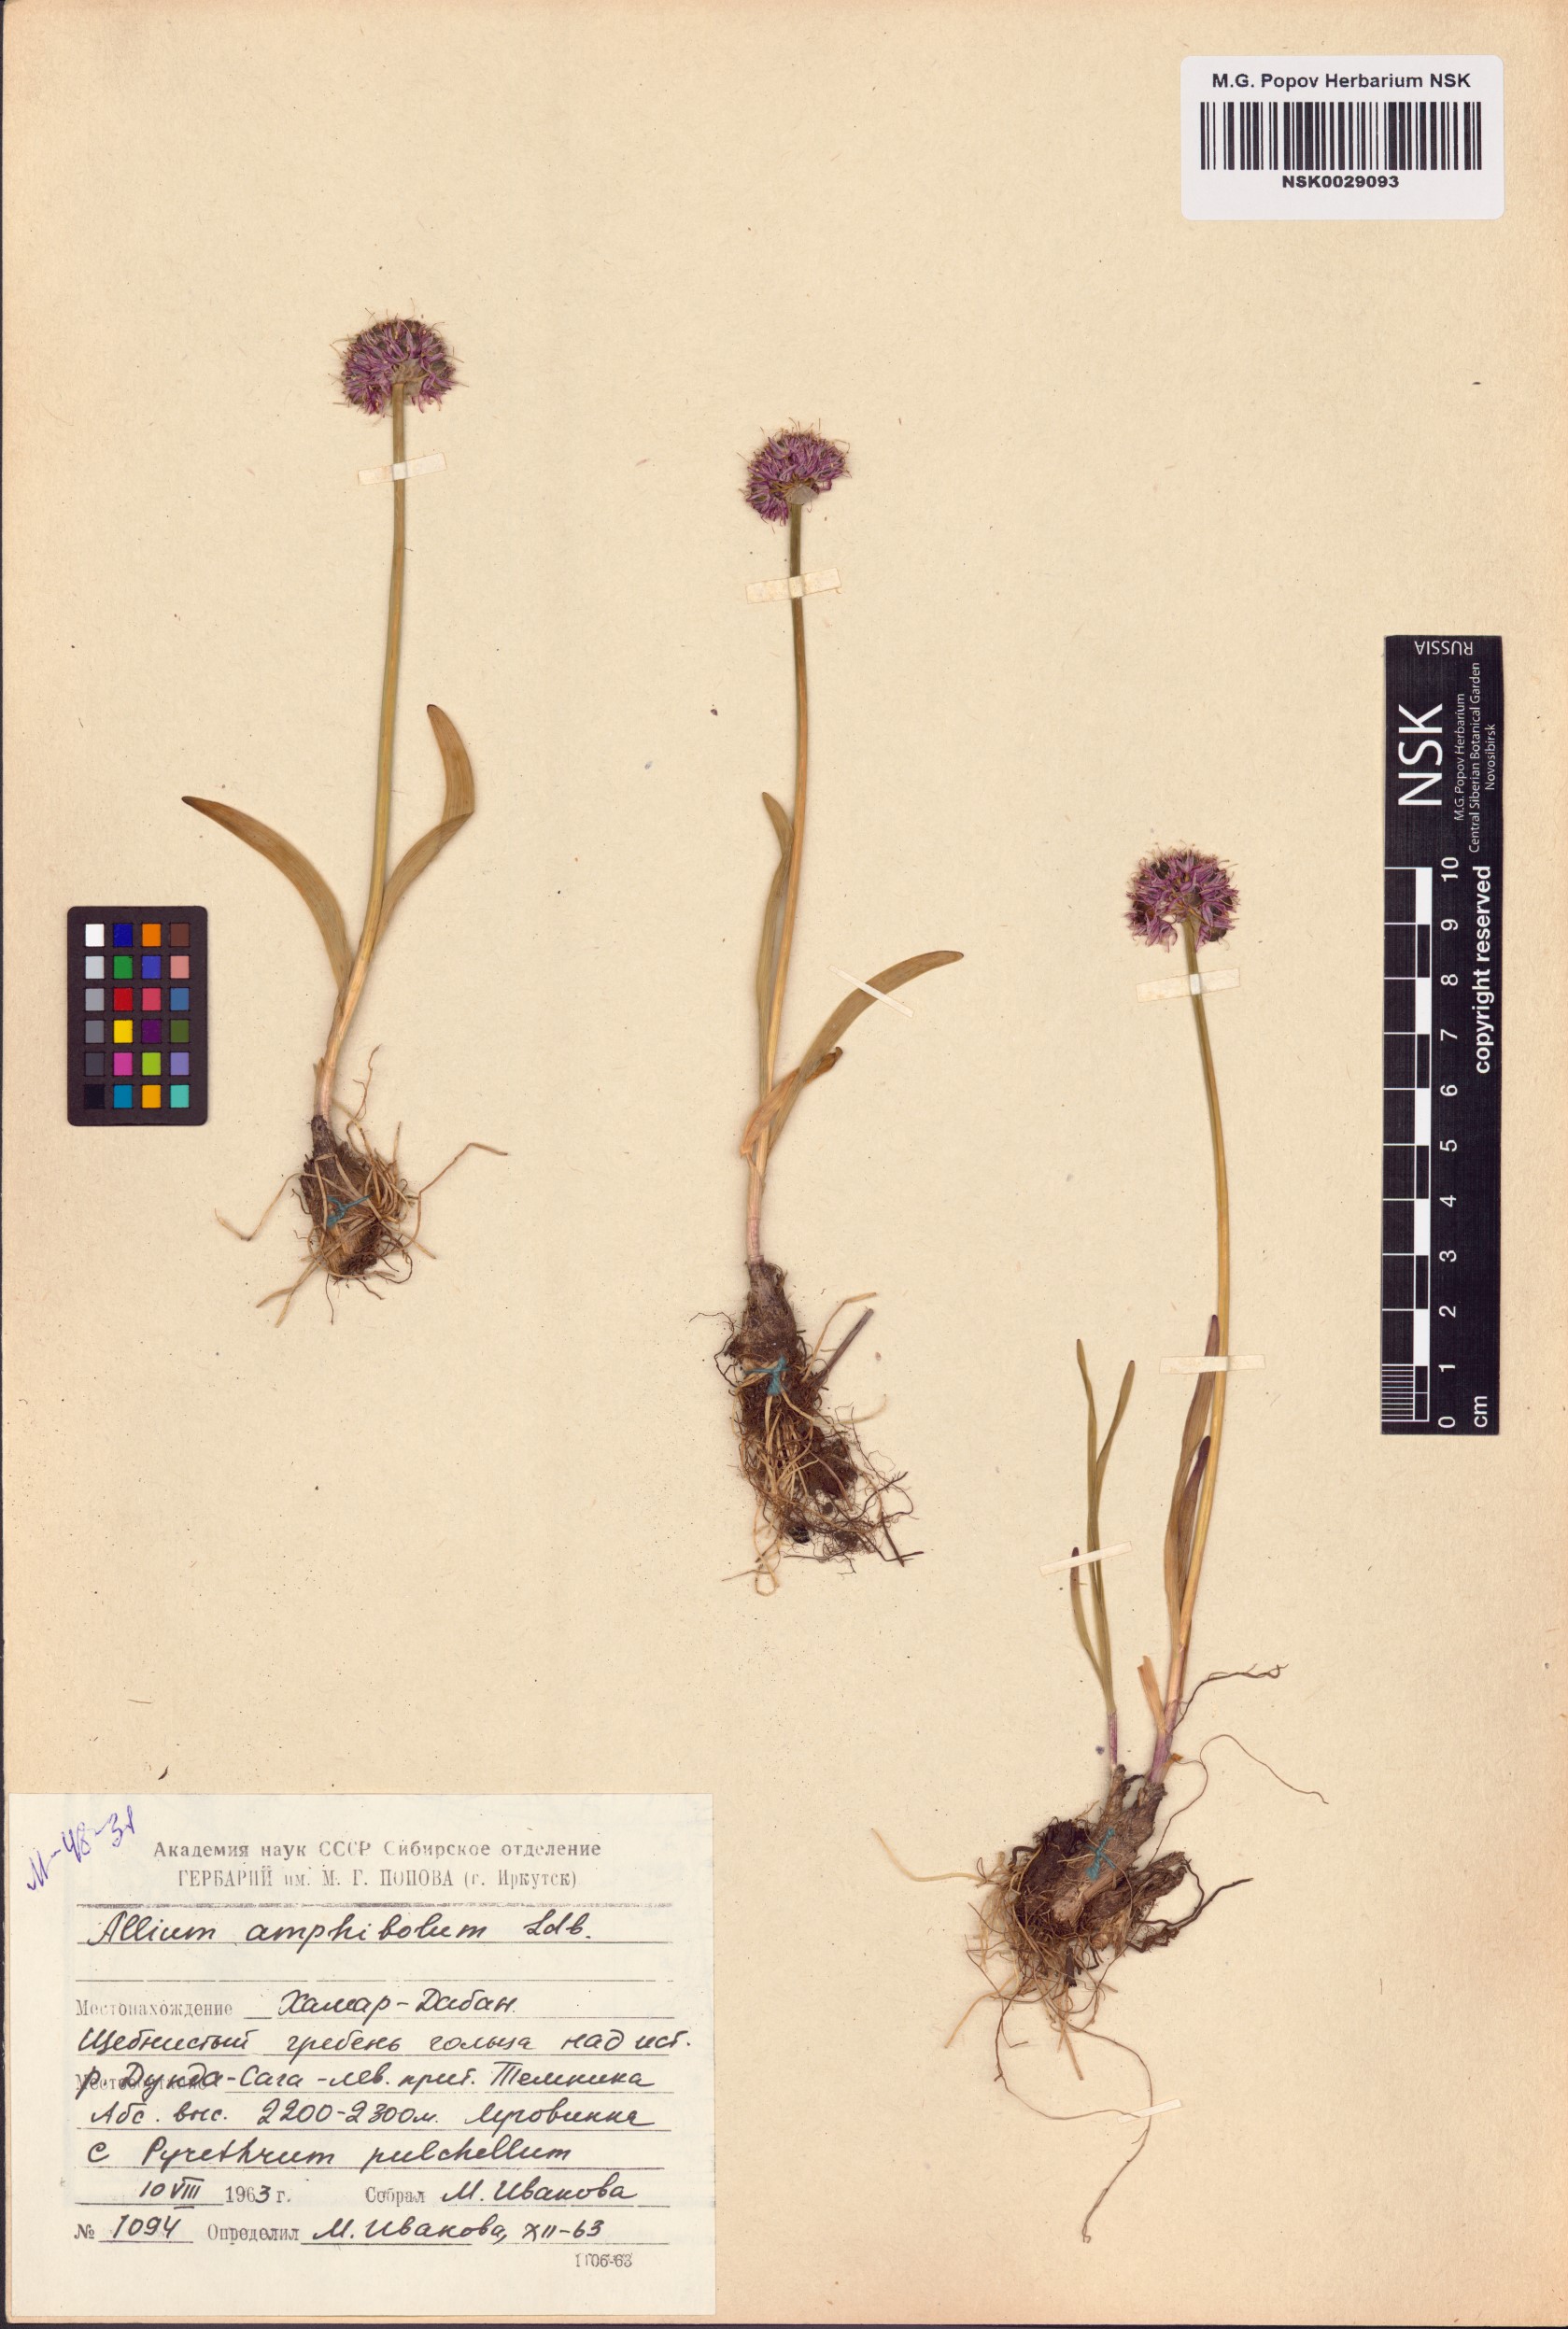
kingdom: Plantae
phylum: Tracheophyta
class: Liliopsida
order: Asparagales
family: Amaryllidaceae
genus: Allium
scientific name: Allium amphibolum
